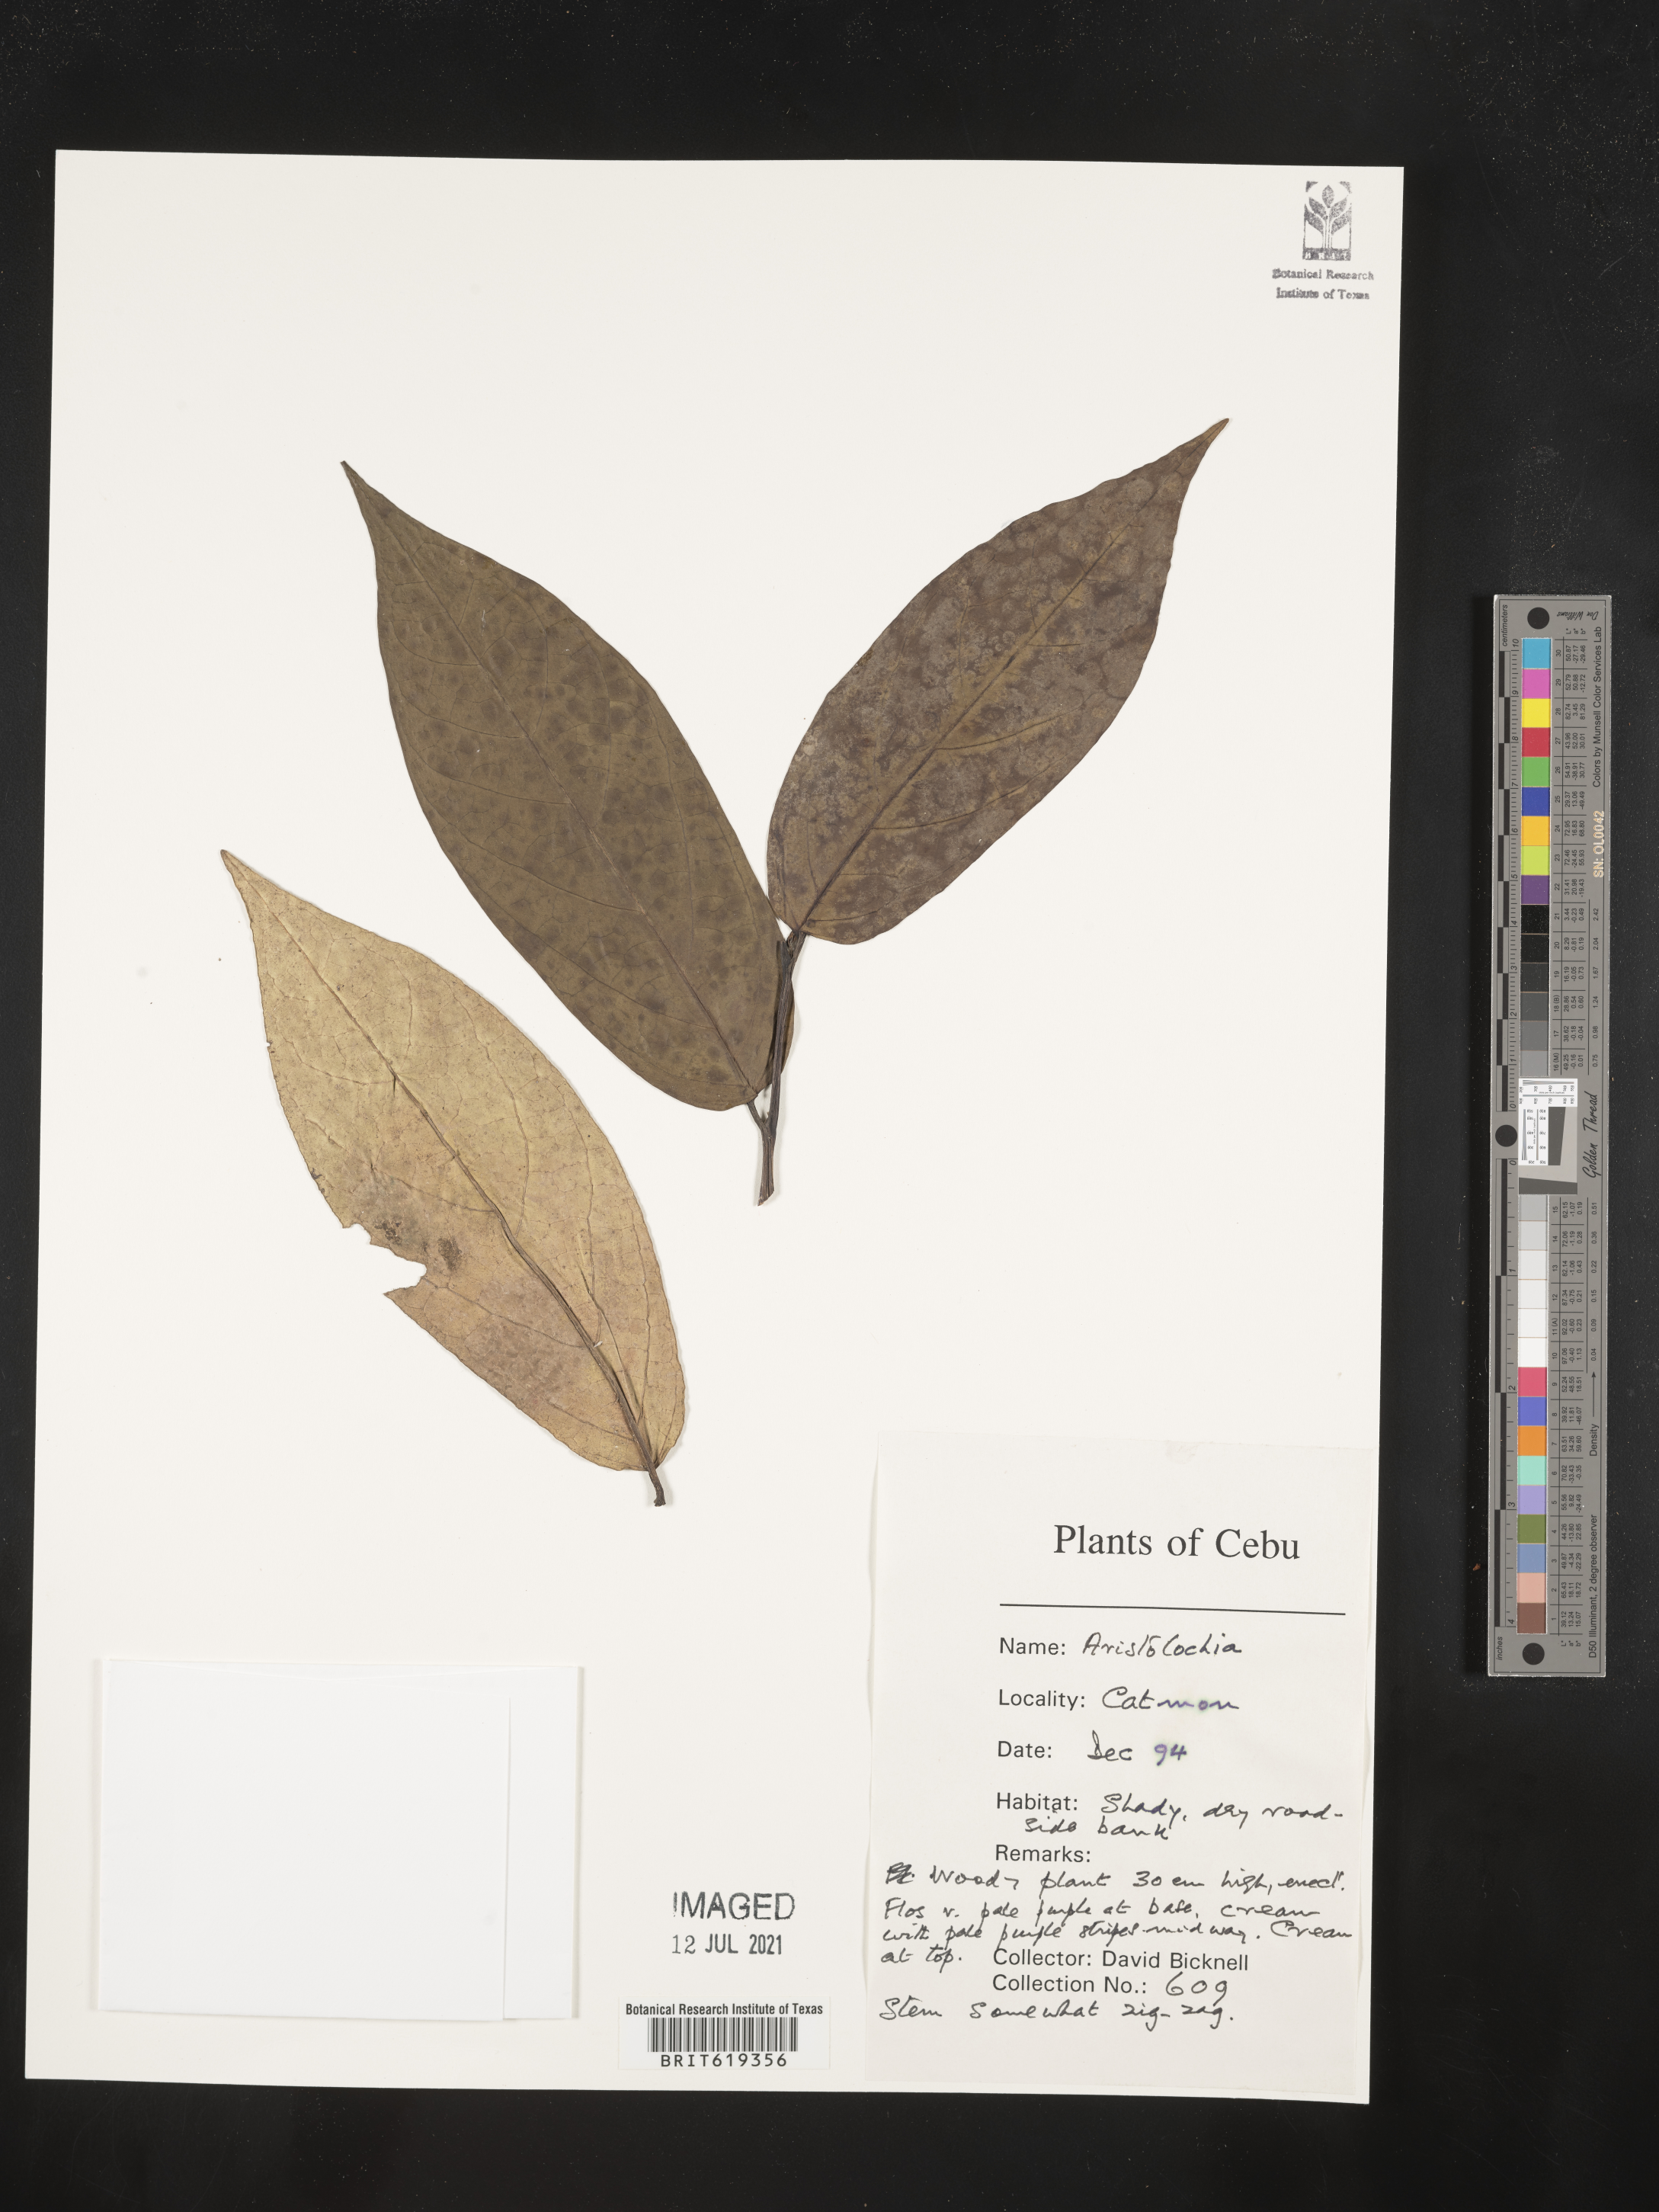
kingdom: Plantae
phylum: Tracheophyta
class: Magnoliopsida
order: Piperales
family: Aristolochiaceae
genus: Aristolochia
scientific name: Aristolochia
